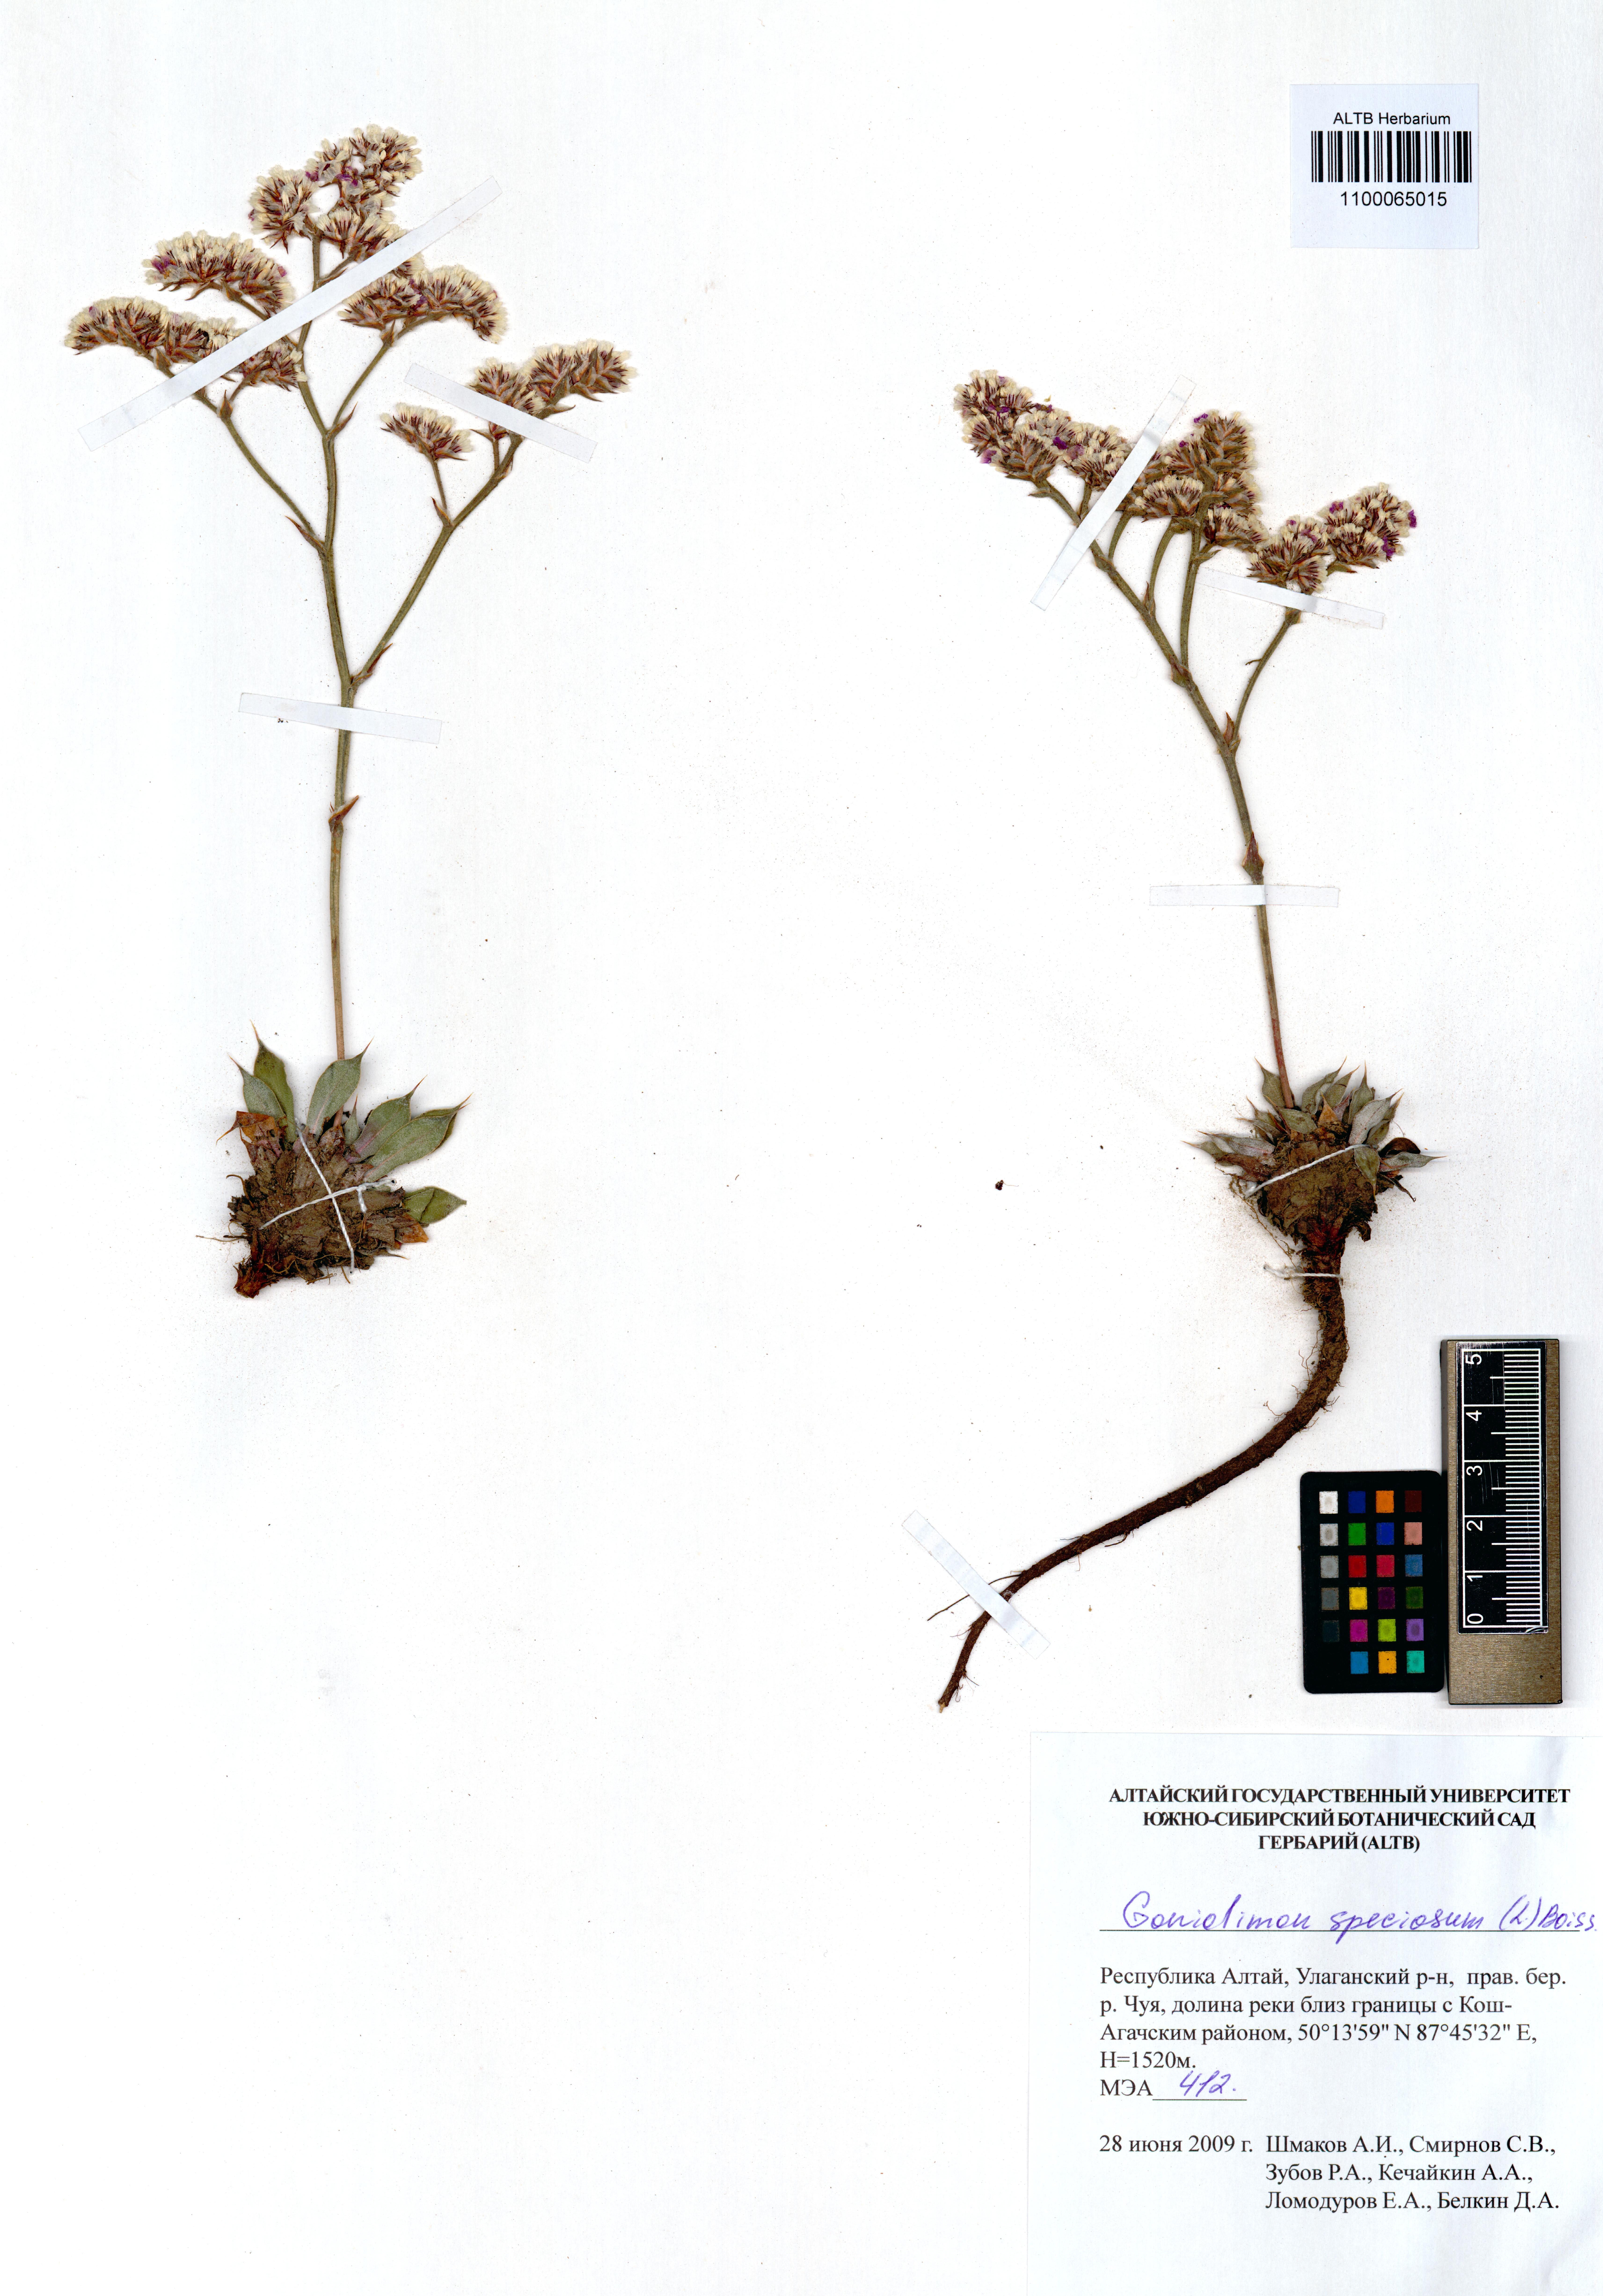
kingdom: Plantae
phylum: Tracheophyta
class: Magnoliopsida
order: Caryophyllales
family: Plumbaginaceae
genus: Goniolimon
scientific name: Goniolimon speciosum
